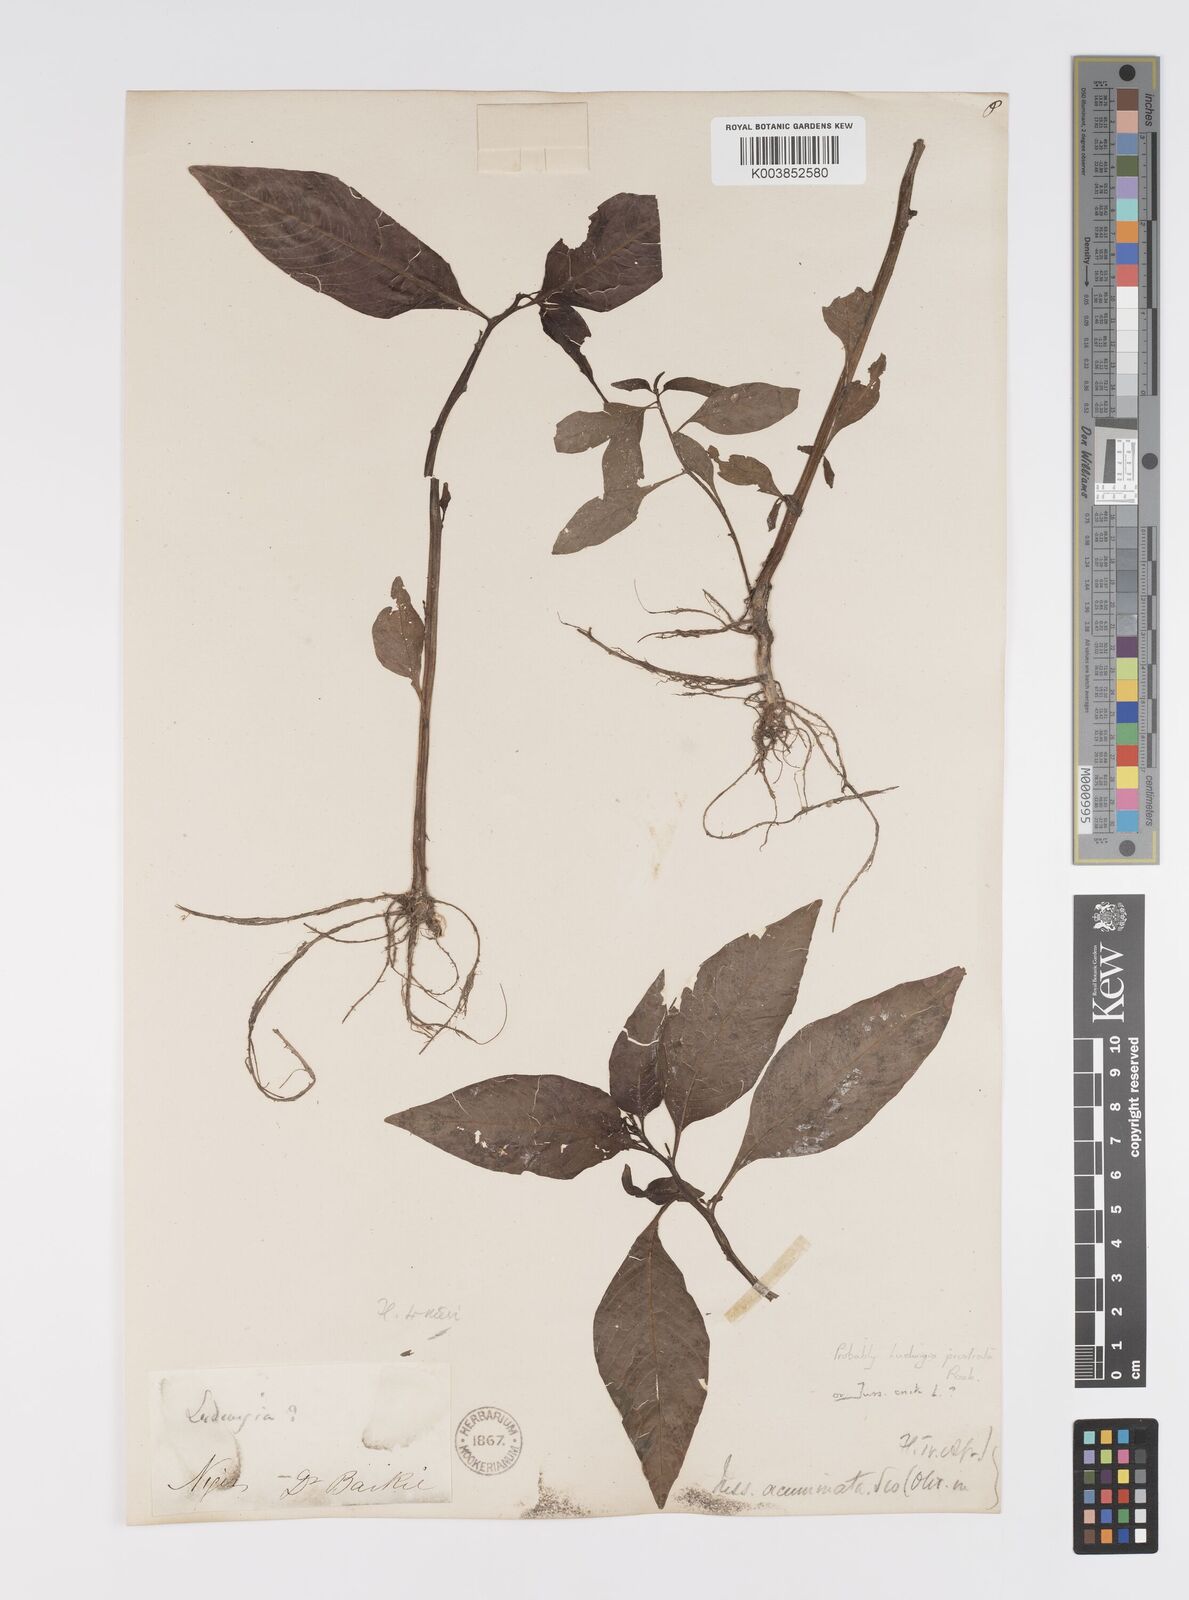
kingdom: Plantae
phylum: Tracheophyta
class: Magnoliopsida
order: Myrtales
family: Onagraceae
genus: Ludwigia
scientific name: Ludwigia abyssinica
